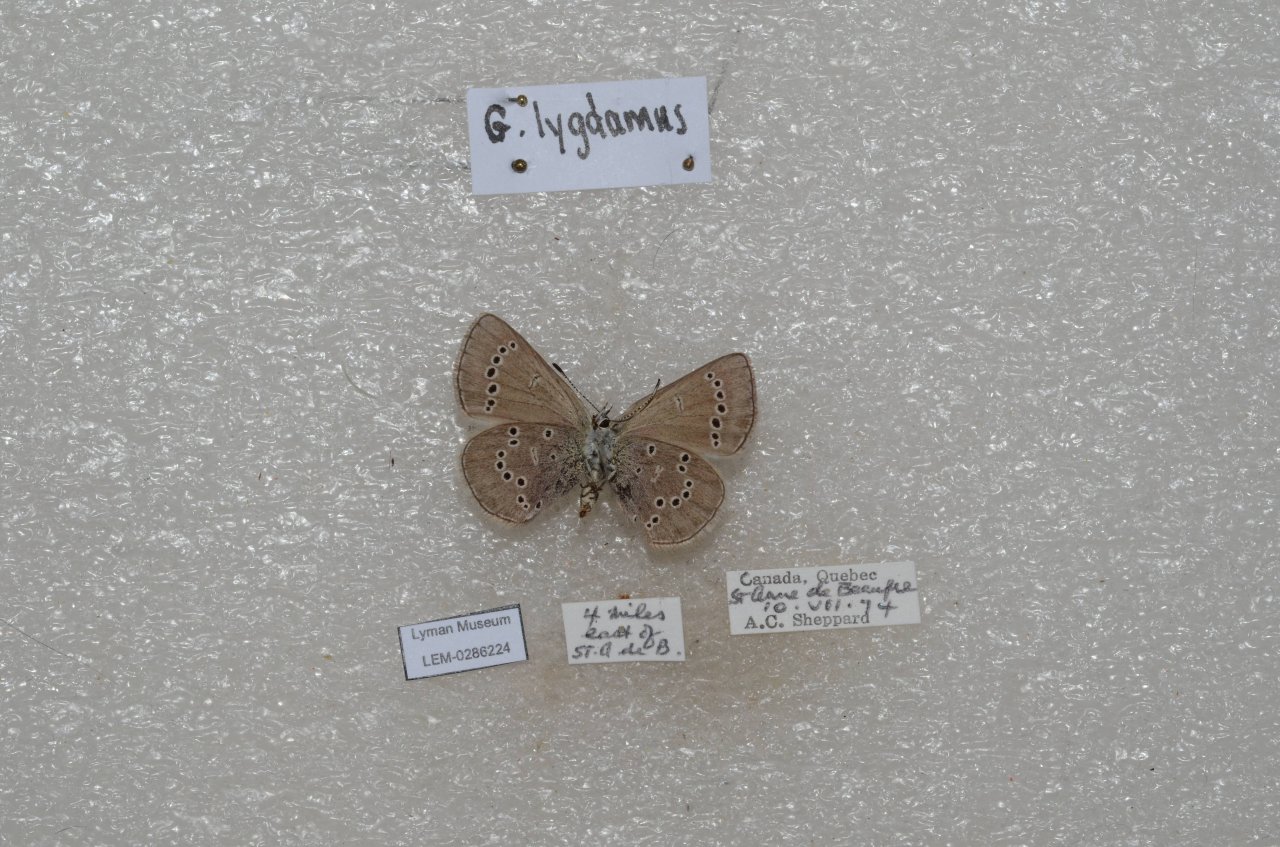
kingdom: Animalia
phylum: Arthropoda
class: Insecta
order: Lepidoptera
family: Lycaenidae
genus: Glaucopsyche
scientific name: Glaucopsyche lygdamus
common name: Silvery Blue
